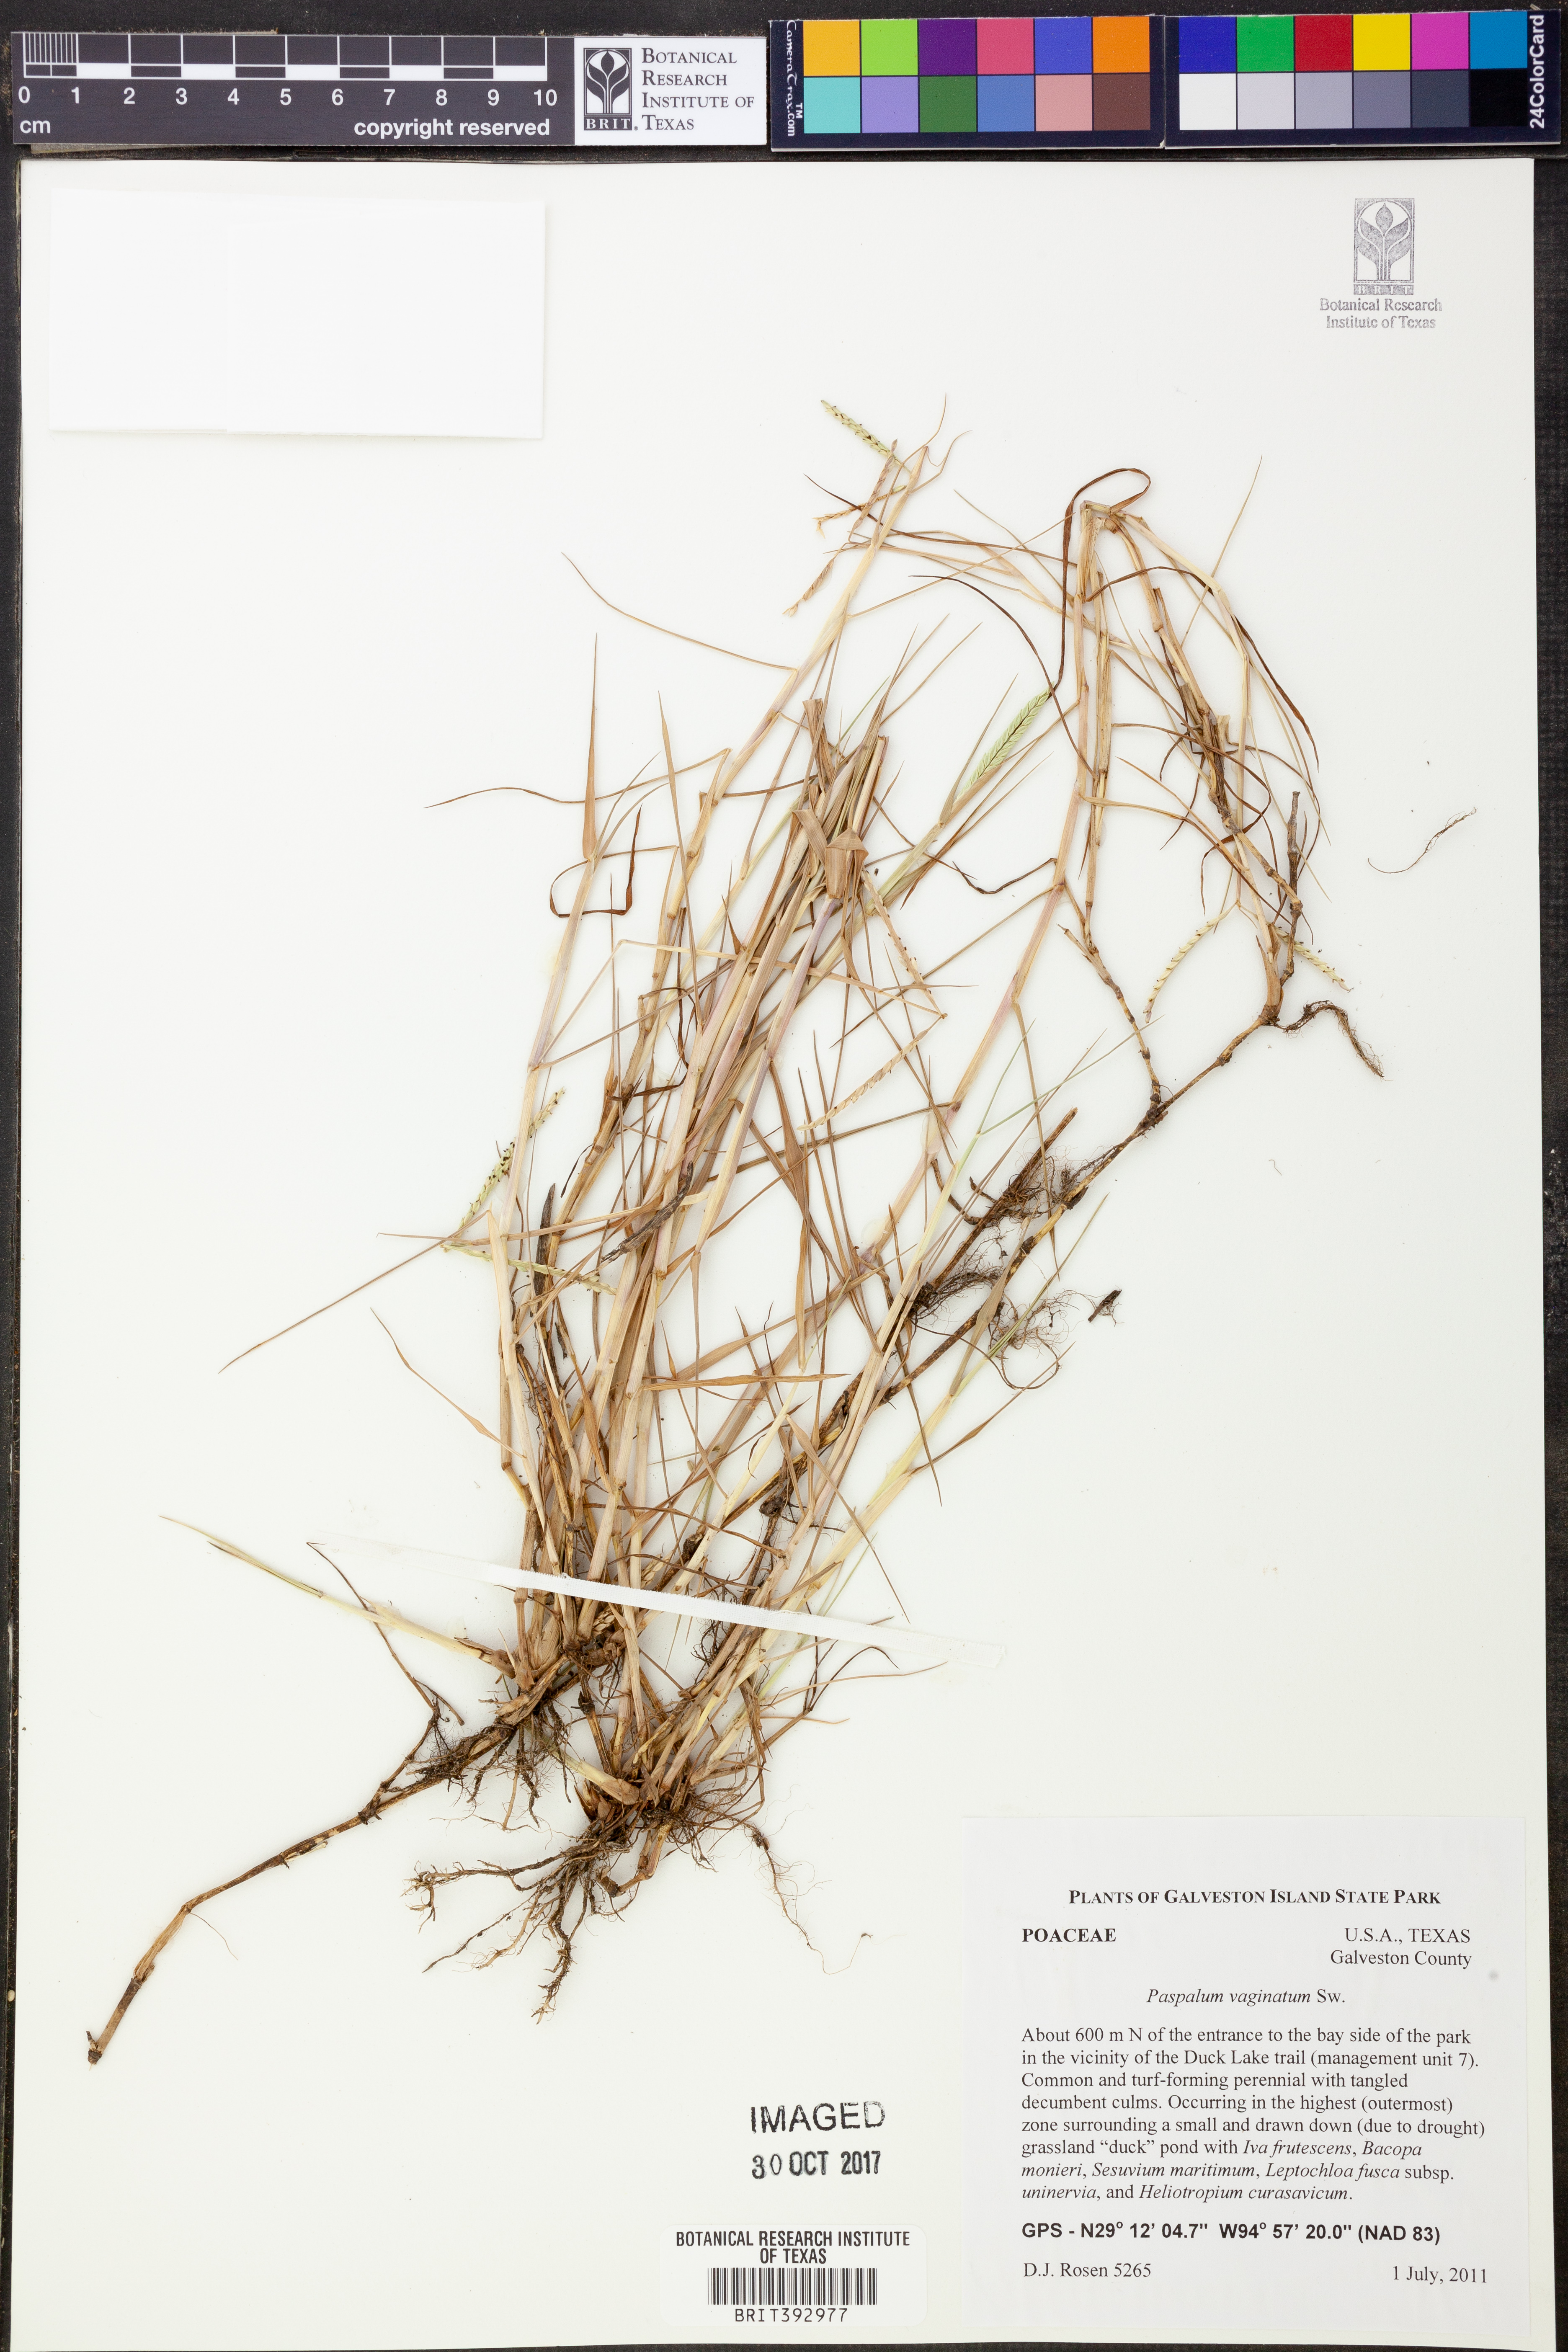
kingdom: Plantae
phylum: Tracheophyta
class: Liliopsida
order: Poales
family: Poaceae
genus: Paspalum
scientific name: Paspalum vaginatum
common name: Seashore paspalum
